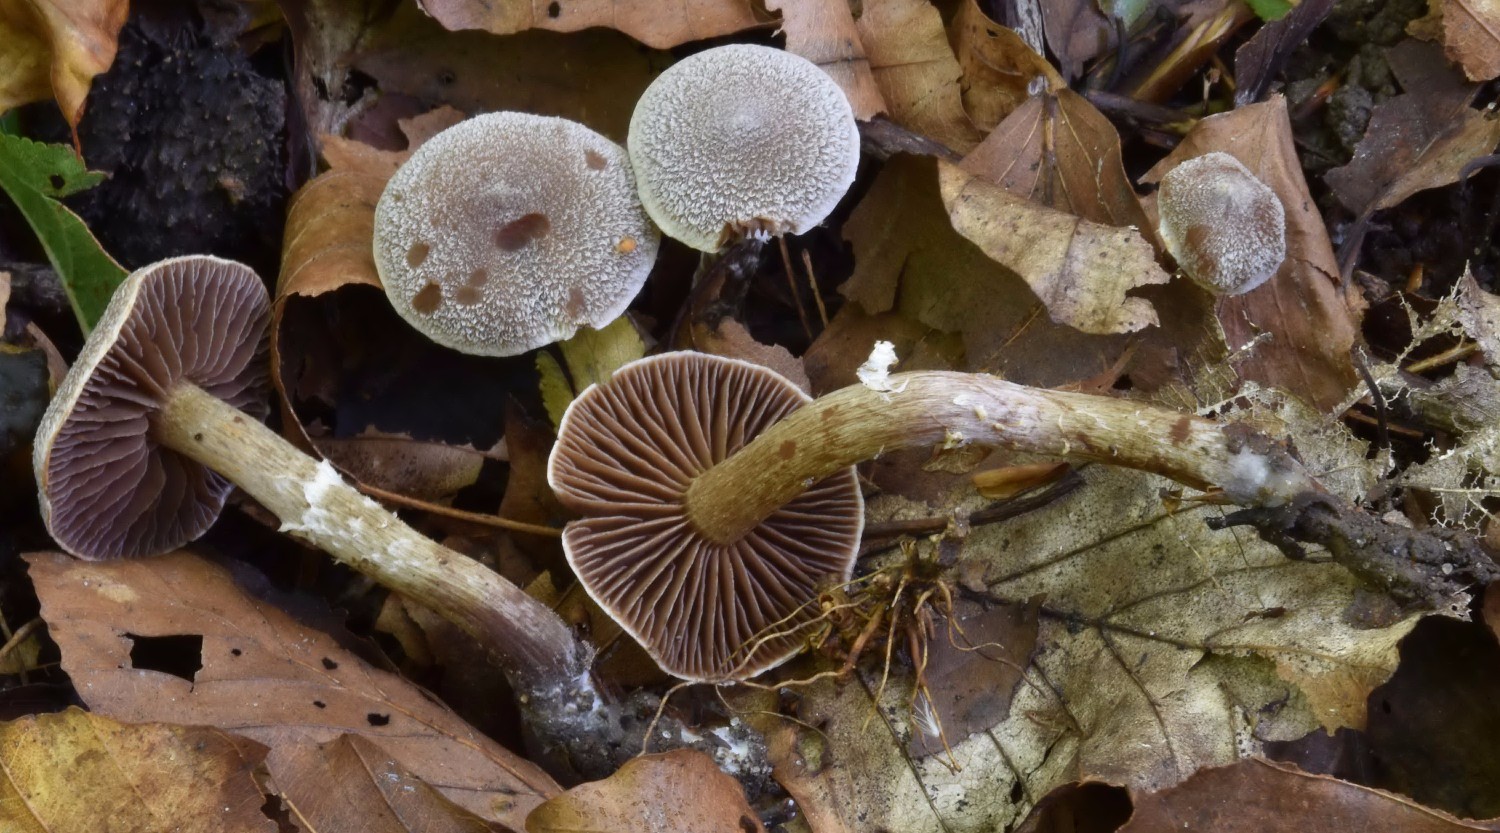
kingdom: Fungi
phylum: Basidiomycota
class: Agaricomycetes
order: Agaricales
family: Cortinariaceae
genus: Cortinarius
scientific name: Cortinarius hemitrichus
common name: hvidfnugget slørhat
